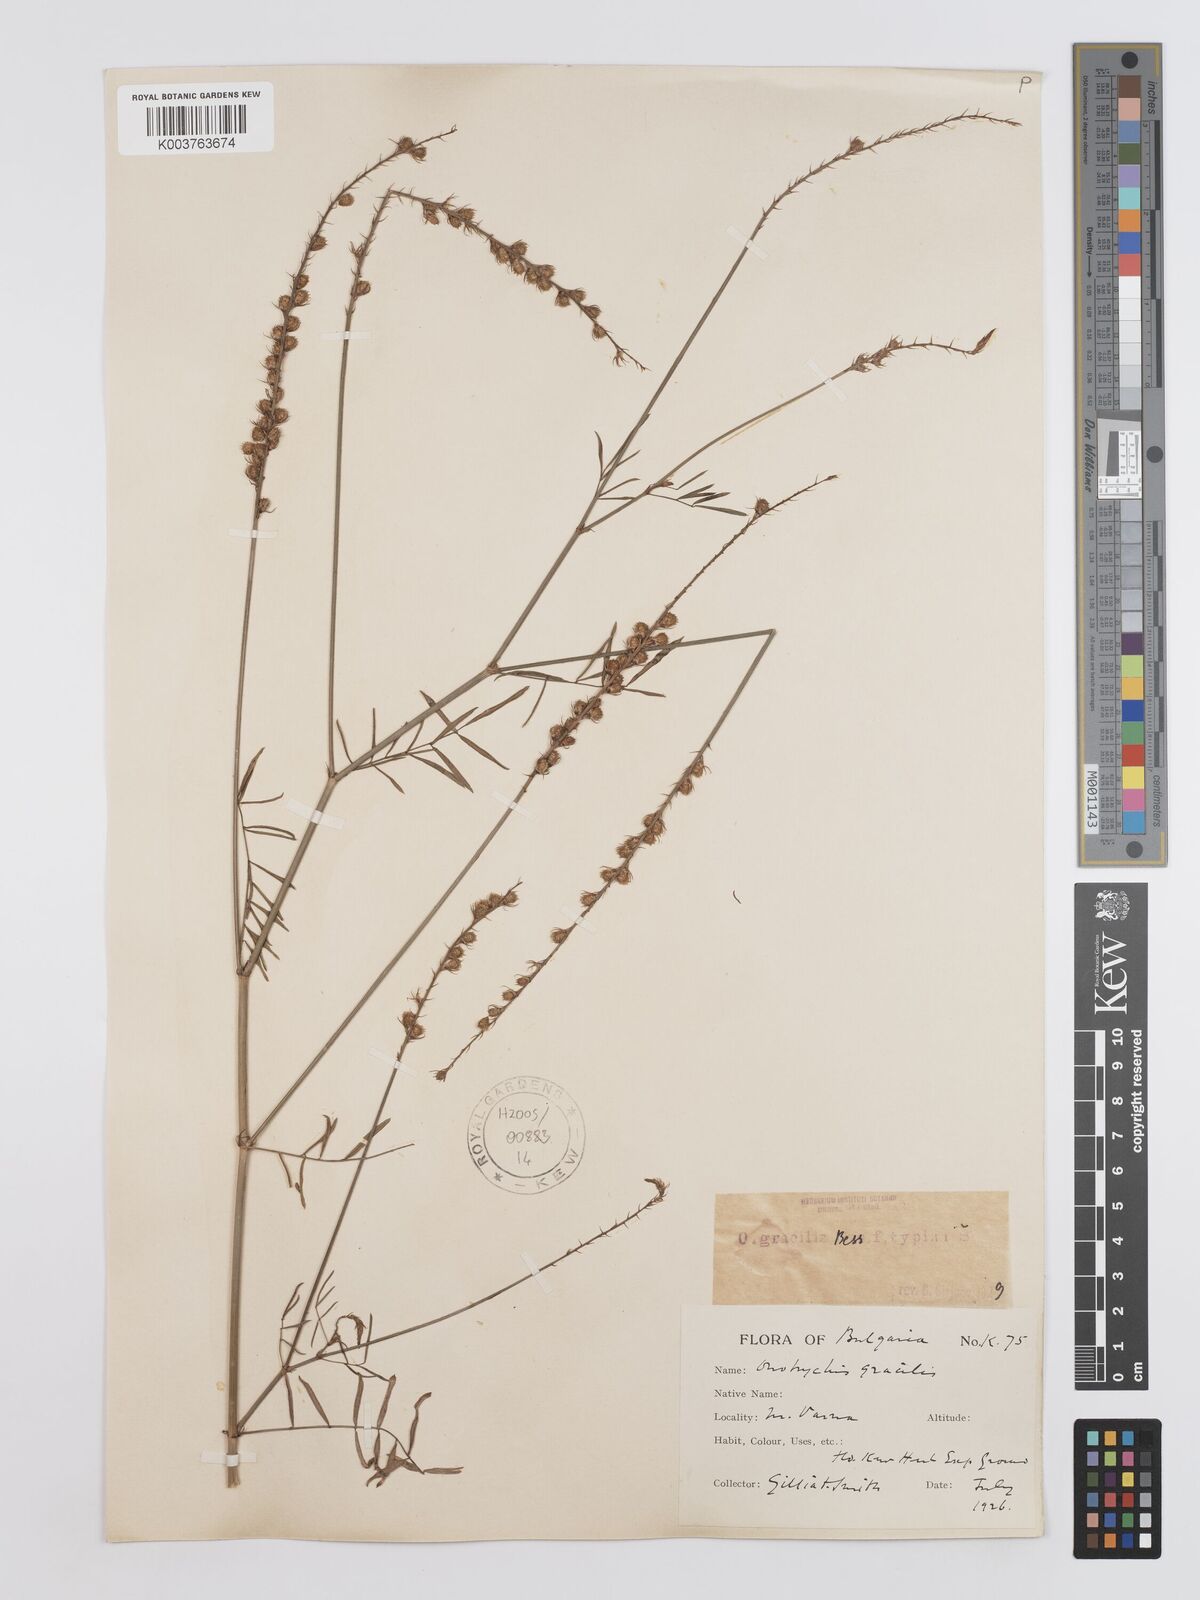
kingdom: Plantae
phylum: Tracheophyta
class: Magnoliopsida
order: Fabales
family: Fabaceae
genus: Onobrychis
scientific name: Onobrychis gracilis
